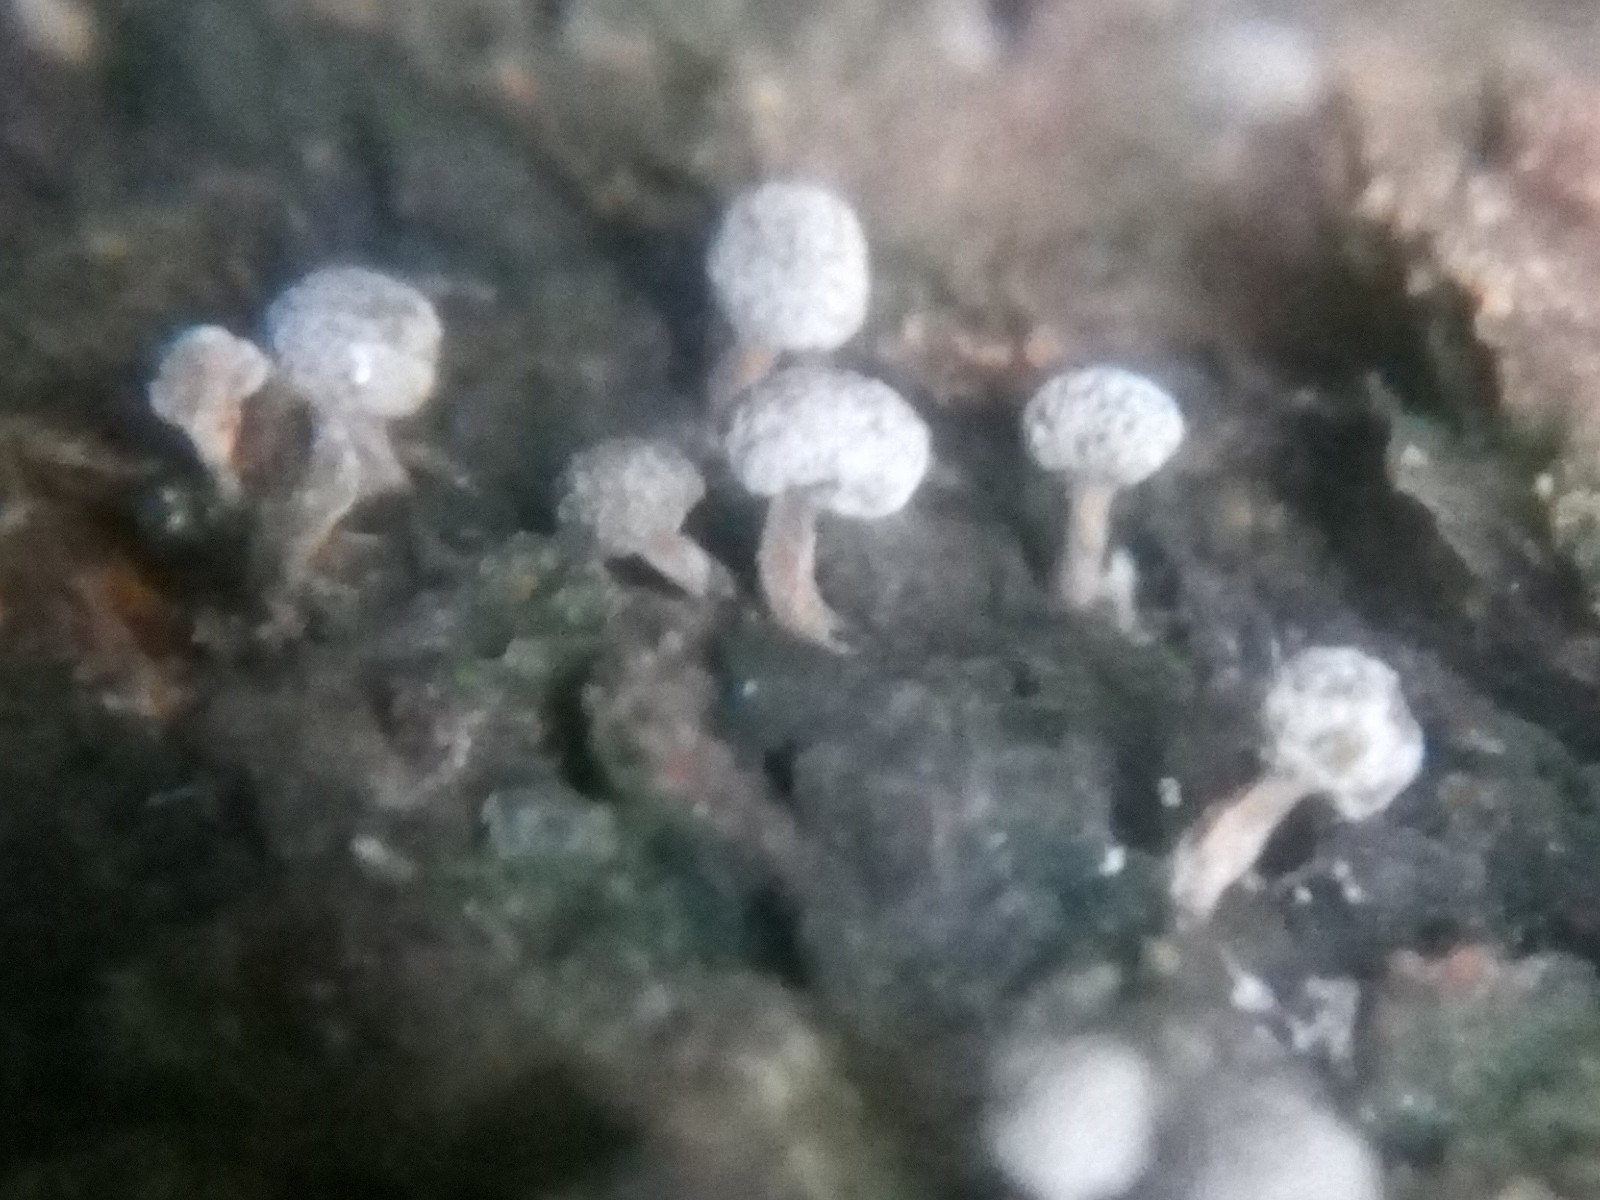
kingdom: Fungi
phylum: Basidiomycota
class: Atractiellomycetes
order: Atractiellales
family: Phleogenaceae
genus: Phleogena
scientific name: Phleogena faginea
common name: pudderkølle
